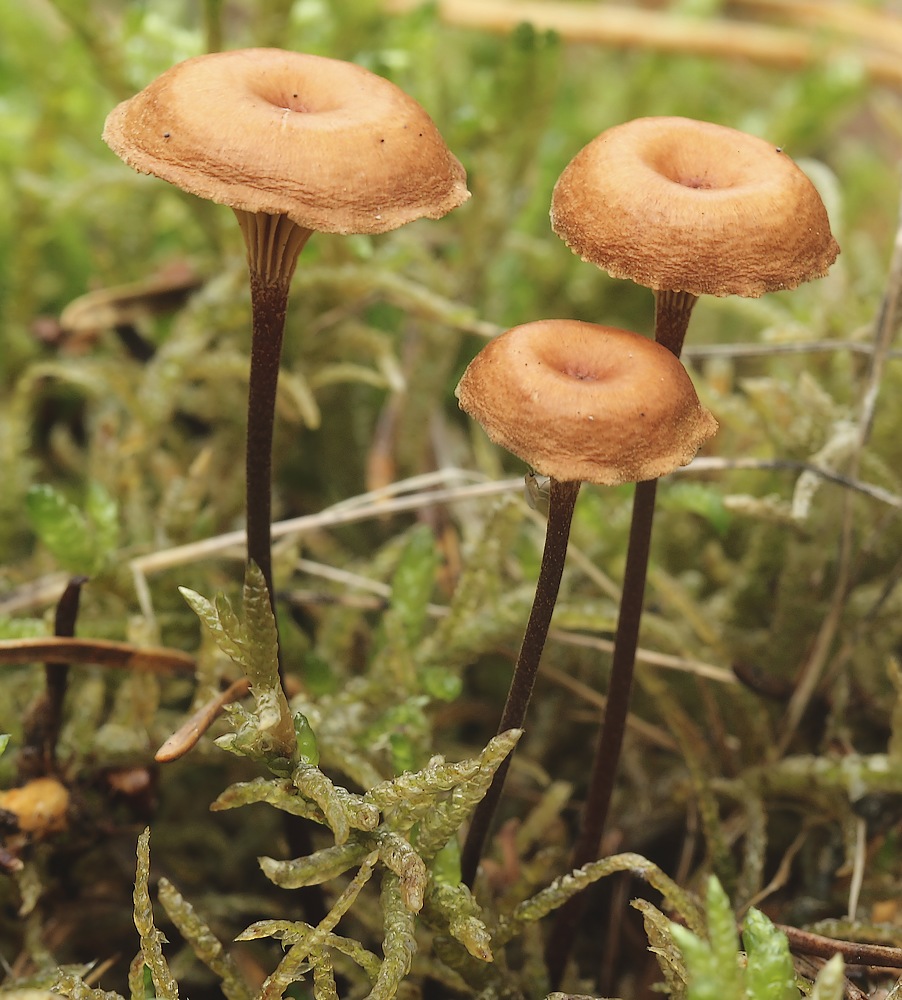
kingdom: Fungi
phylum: Basidiomycota
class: Agaricomycetes
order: Agaricales
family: Mycenaceae
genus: Xeromphalina
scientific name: Xeromphalina cauticinalis
